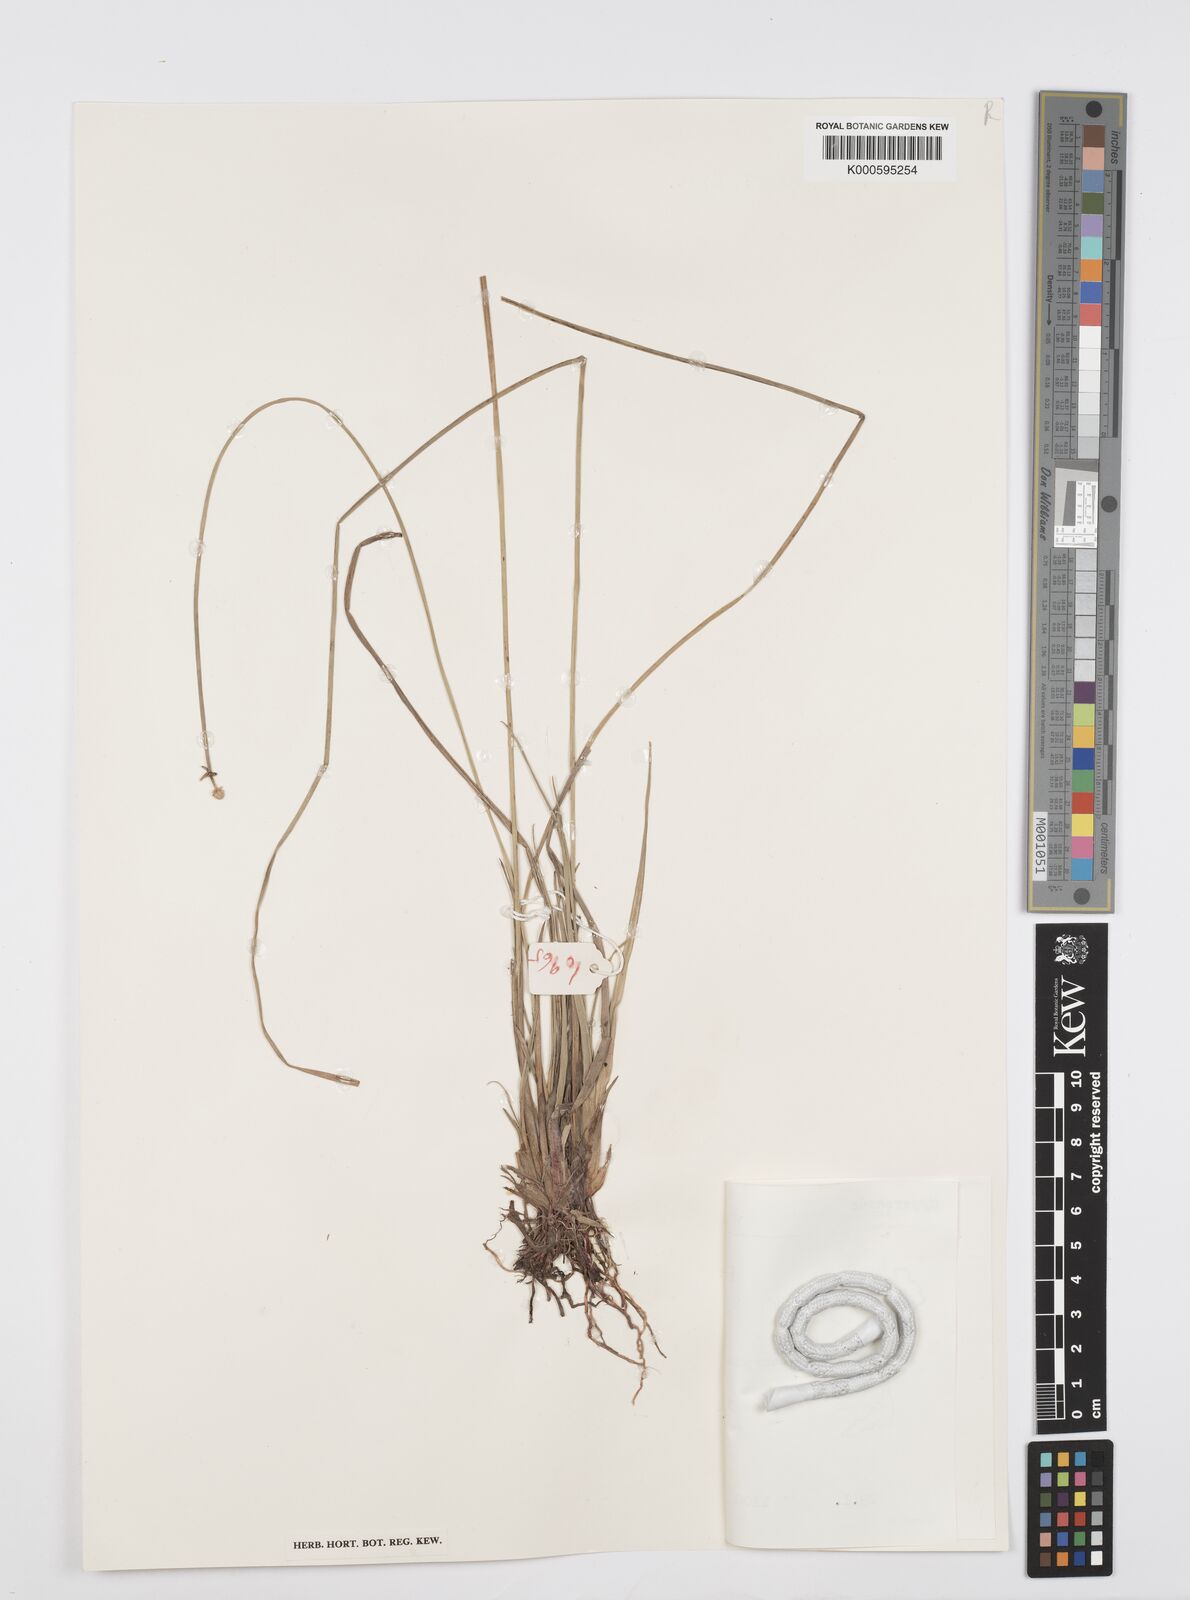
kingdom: Plantae
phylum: Tracheophyta
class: Liliopsida
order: Poales
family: Cyperaceae
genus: Cyperus
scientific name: Cyperus albescens
